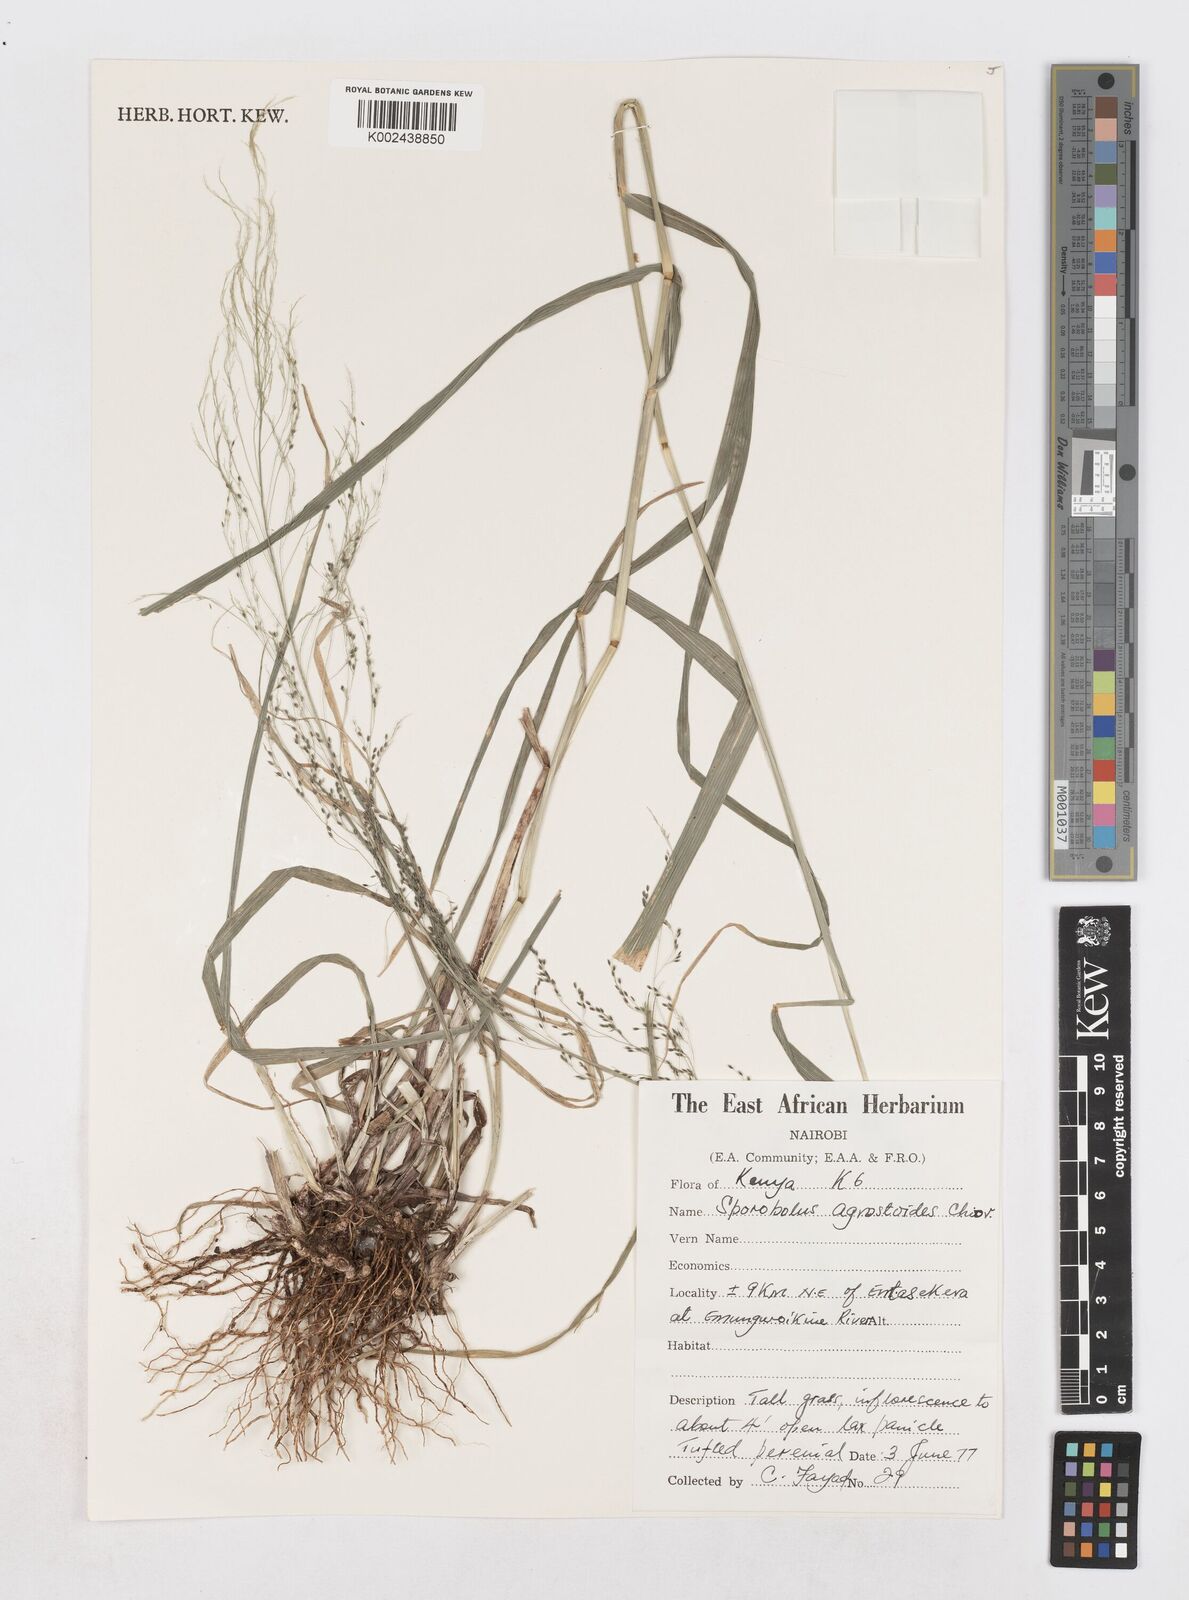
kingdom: Plantae
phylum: Tracheophyta
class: Liliopsida
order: Poales
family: Poaceae
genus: Sporobolus
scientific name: Sporobolus agrostoides
